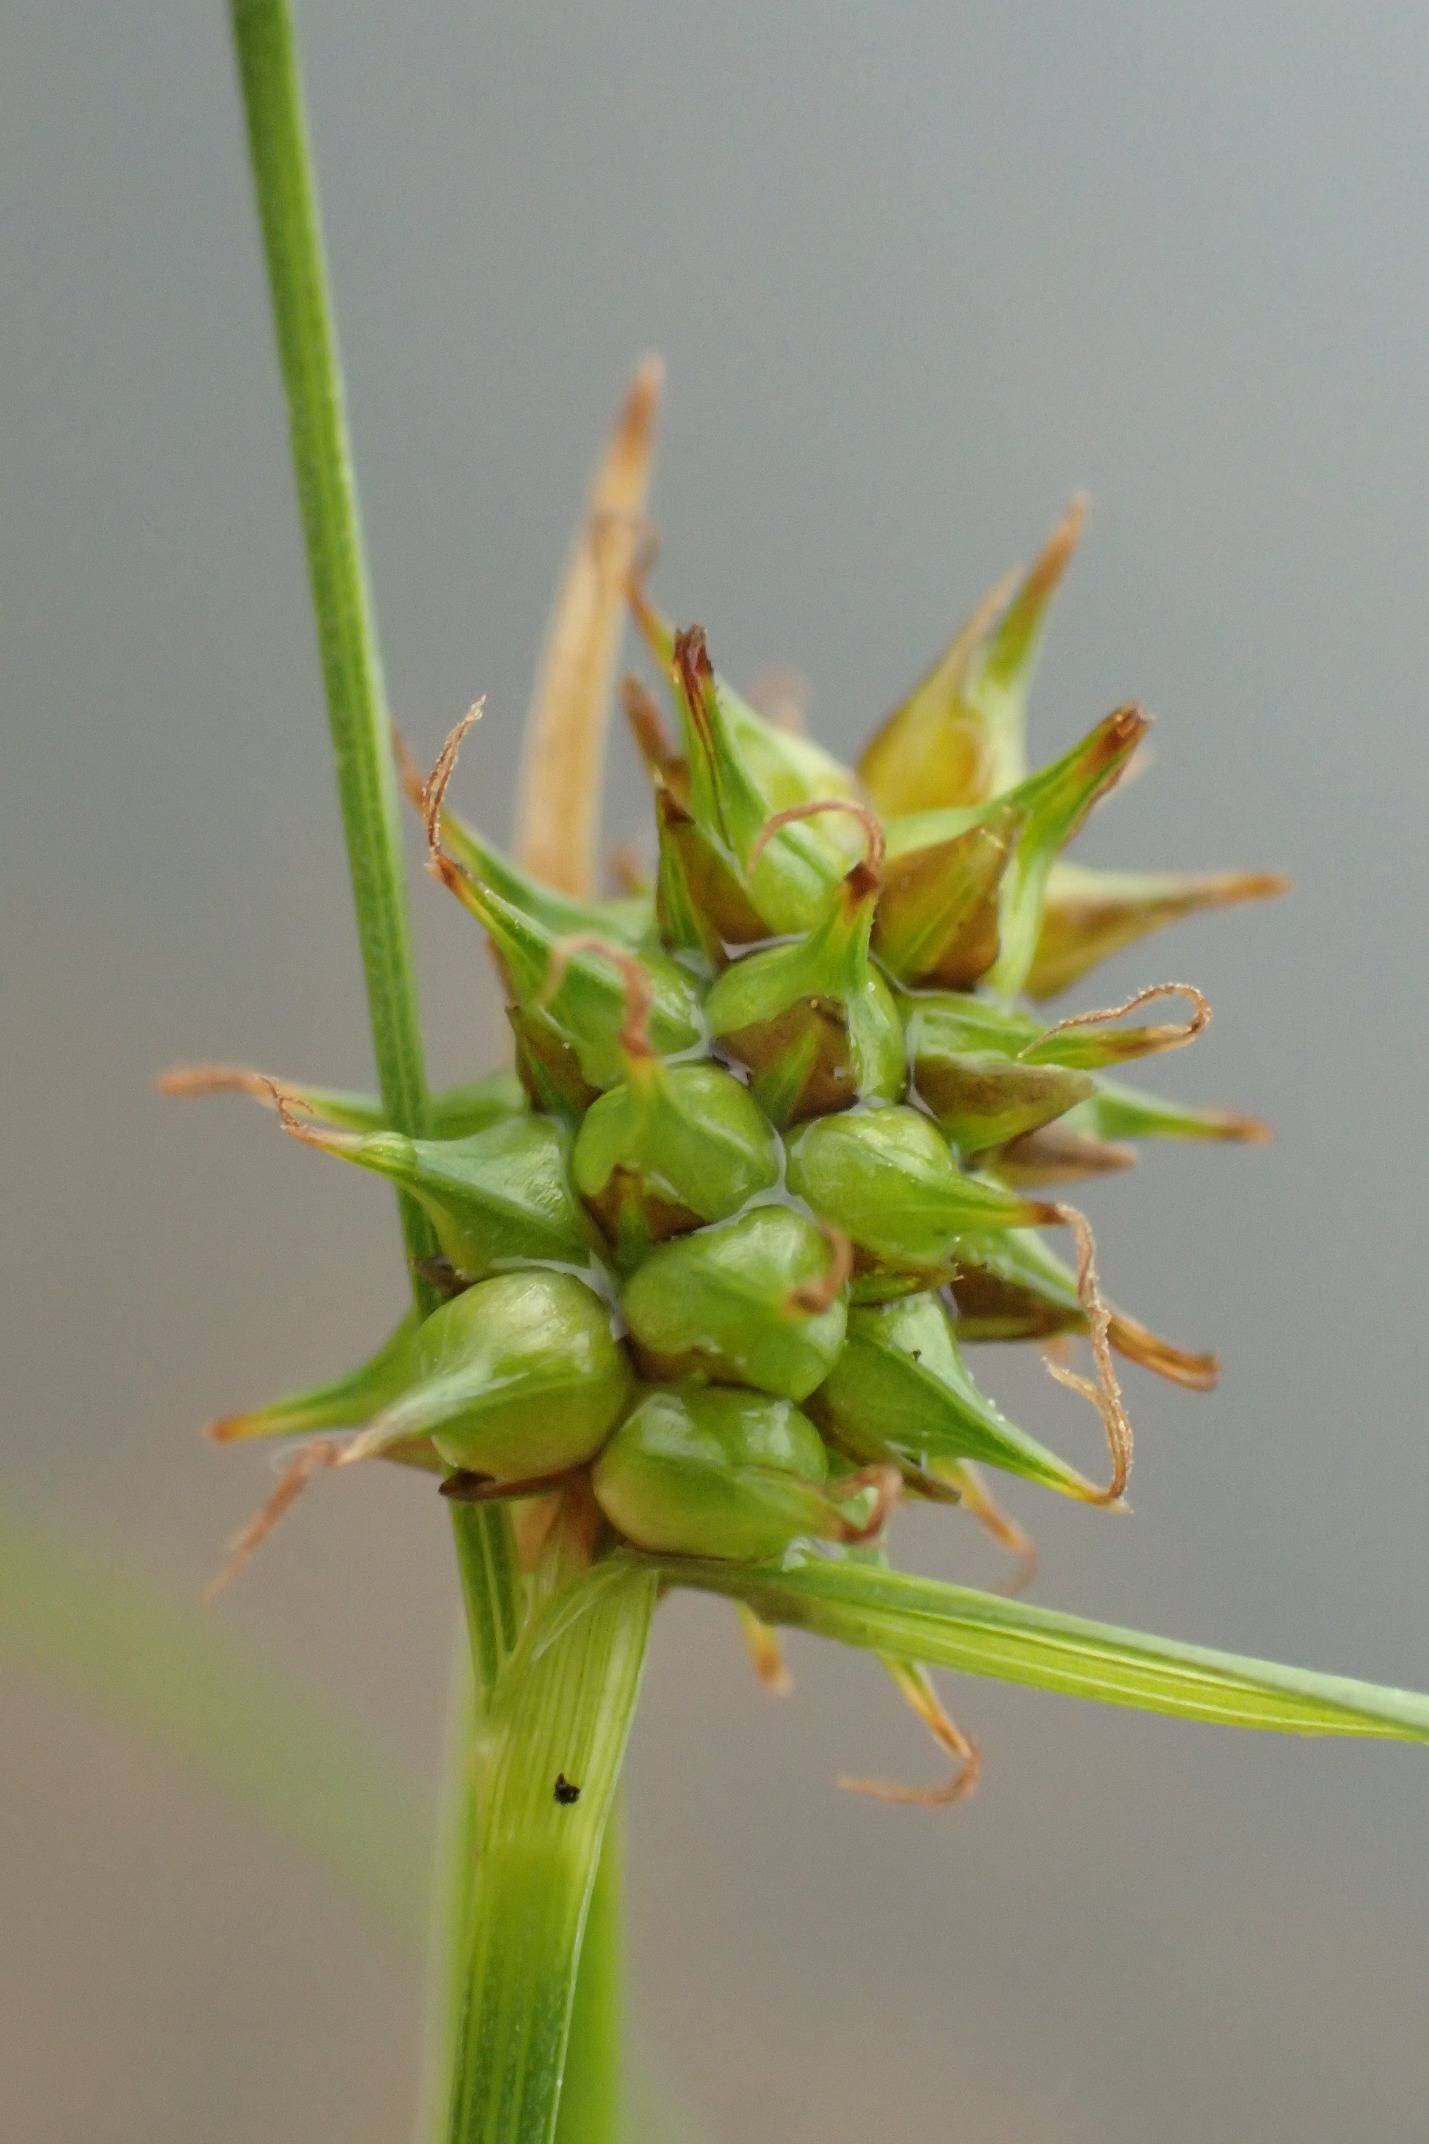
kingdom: Plantae
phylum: Tracheophyta
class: Liliopsida
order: Poales
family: Cyperaceae
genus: Carex
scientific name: Carex demissa
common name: Grøn star
